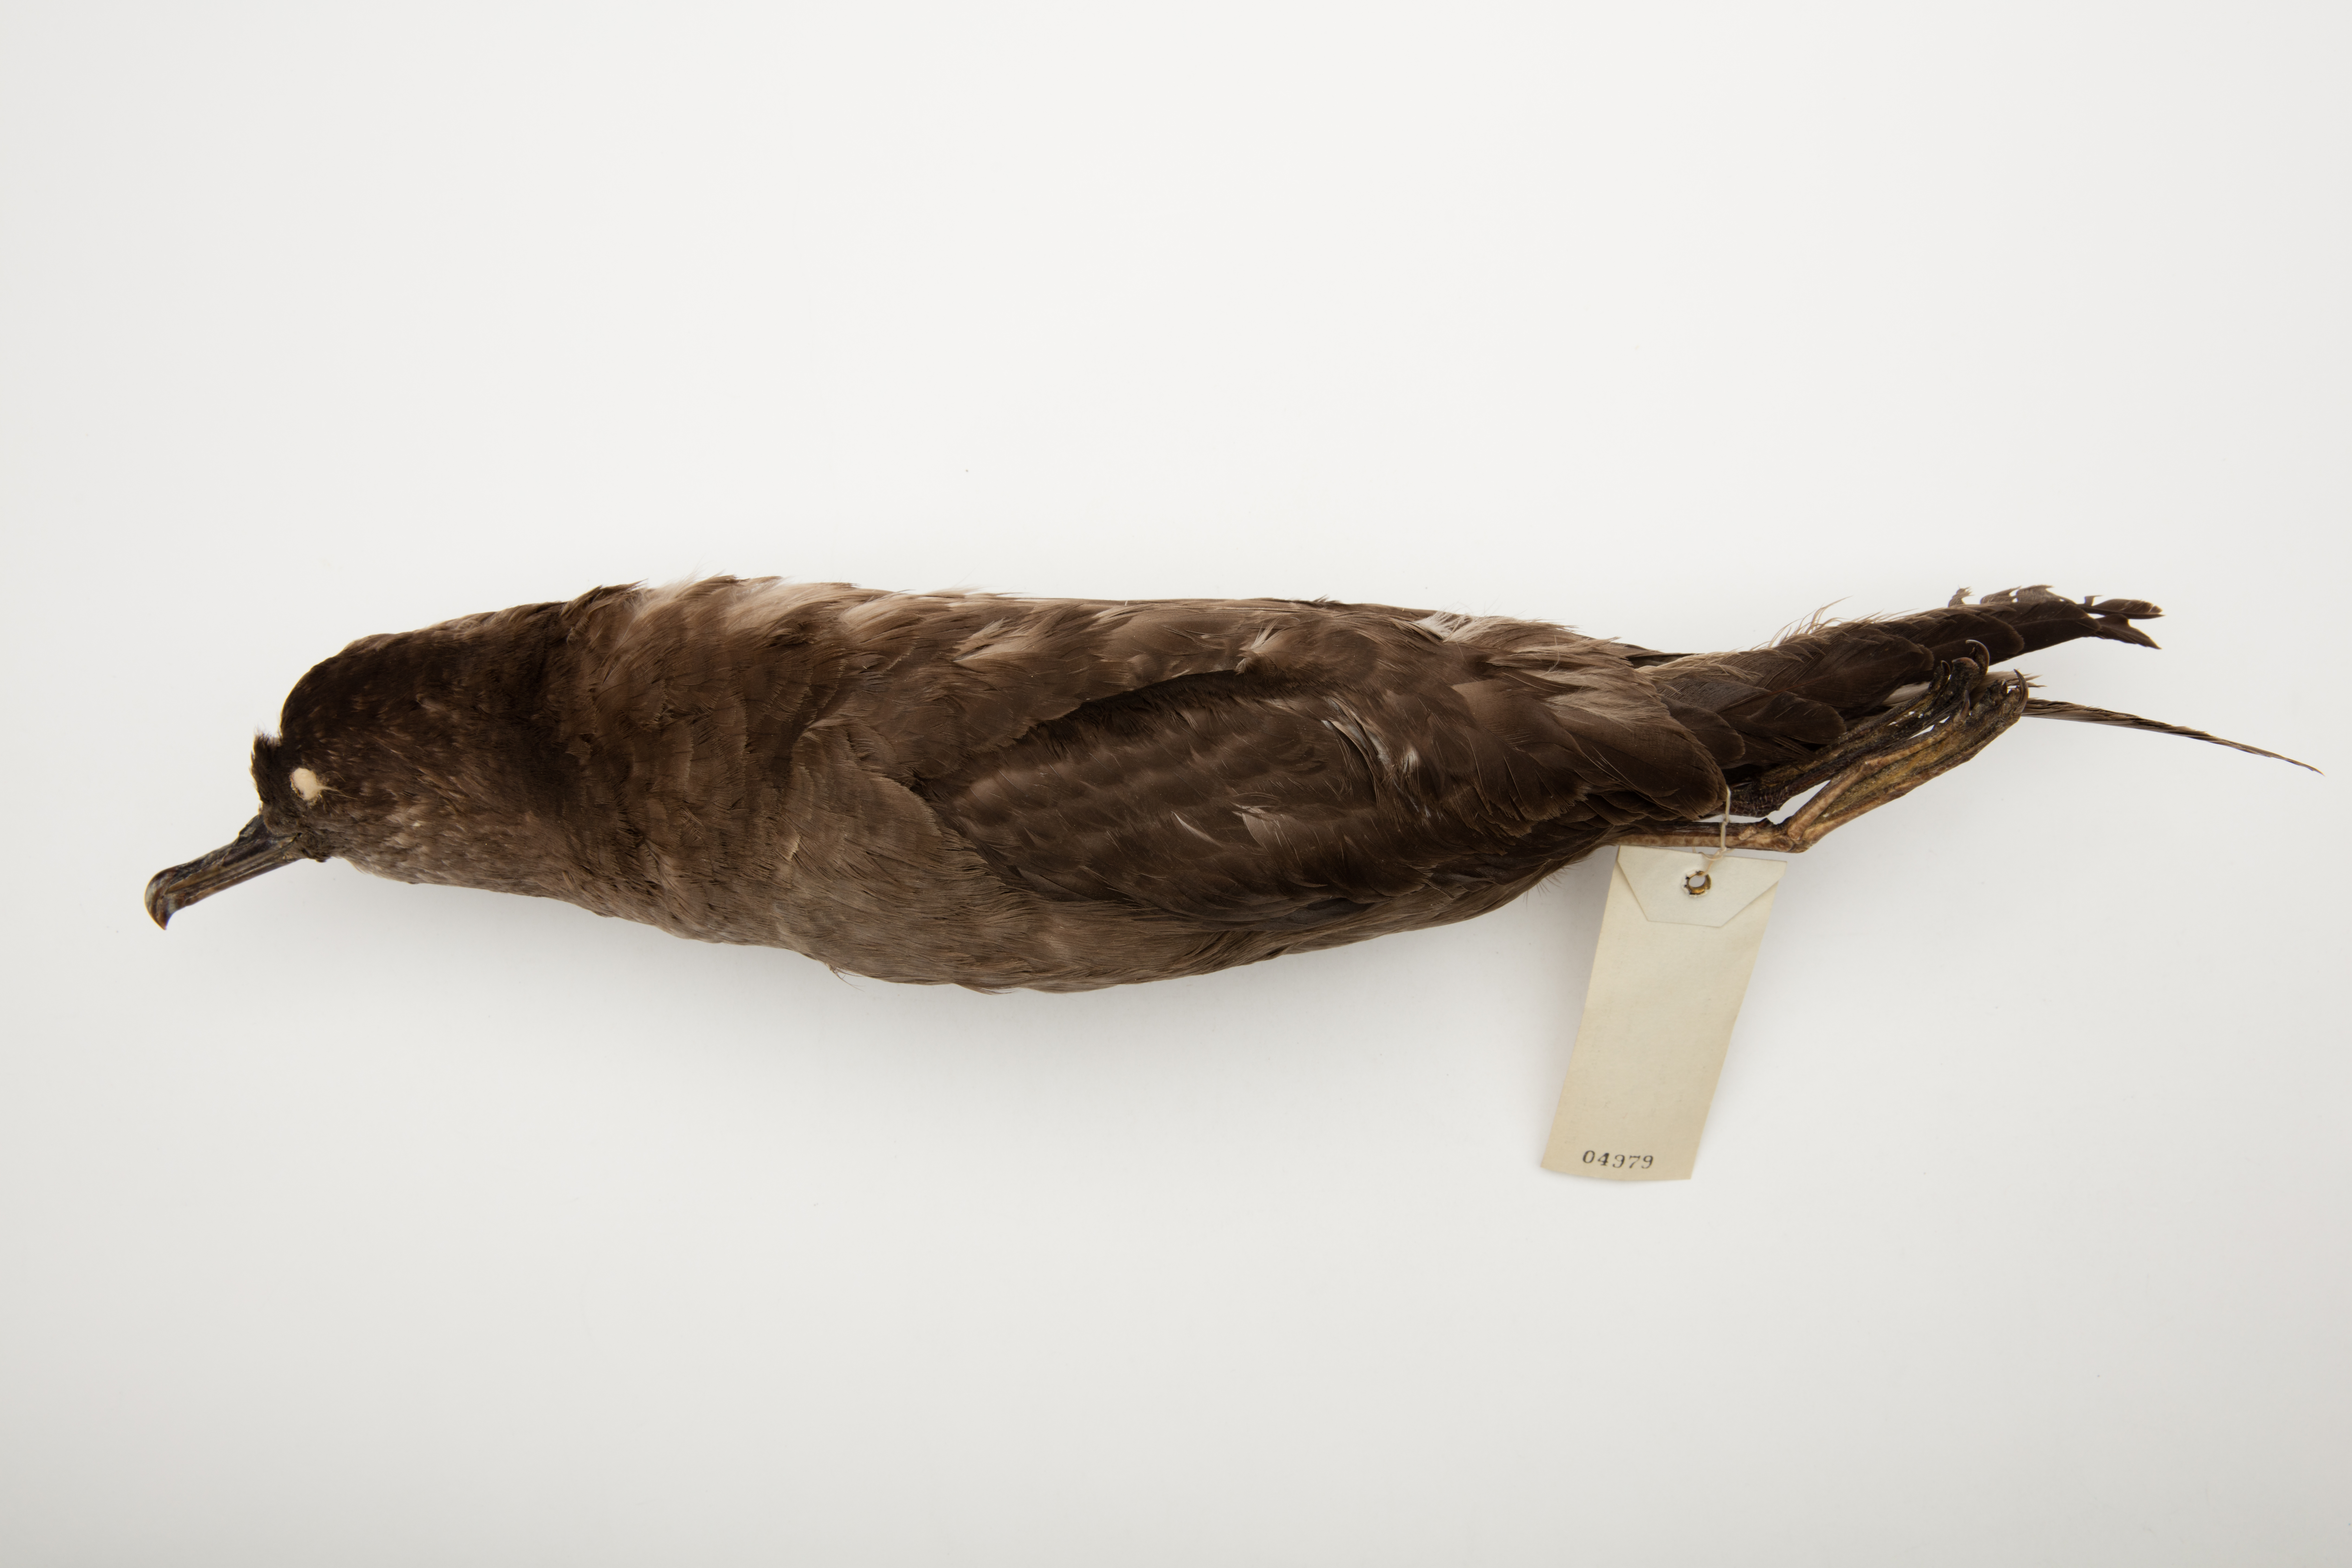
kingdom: Animalia
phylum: Chordata
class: Aves
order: Procellariiformes
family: Procellariidae
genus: Puffinus
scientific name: Puffinus griseus
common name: Sooty shearwater
